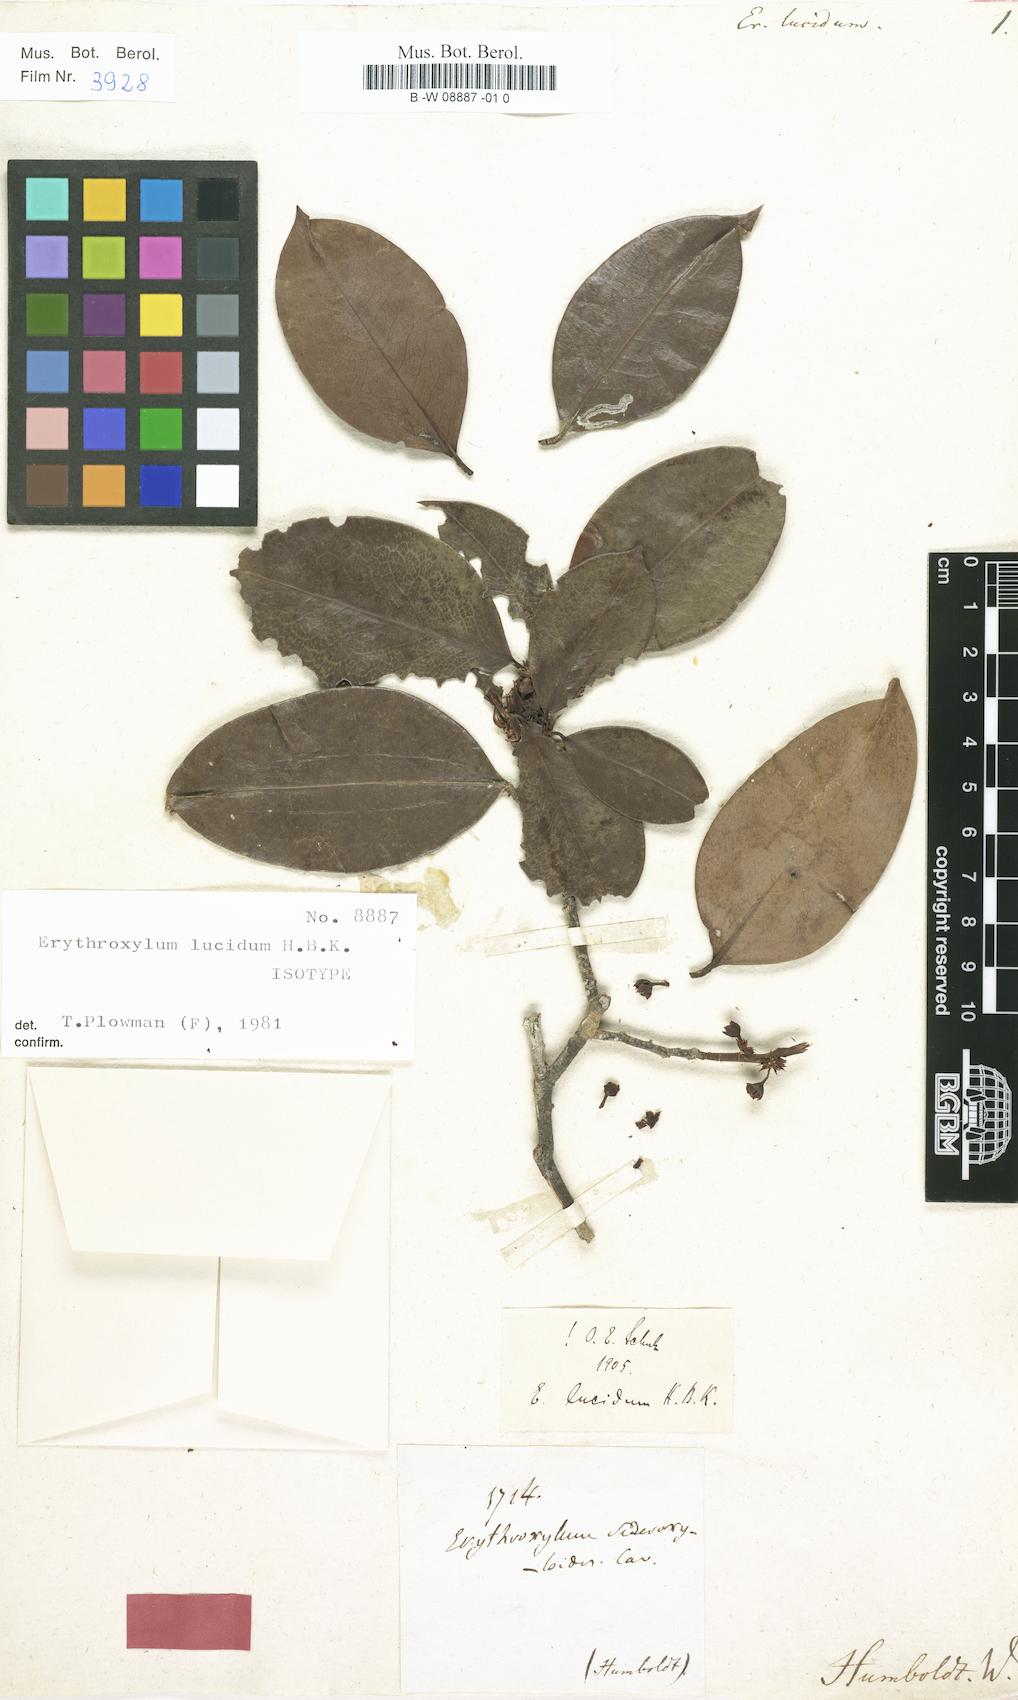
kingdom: Plantae
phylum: Tracheophyta
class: Magnoliopsida
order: Malpighiales
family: Erythroxylaceae
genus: Erythroxylum
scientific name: Erythroxylum macrophyllum
